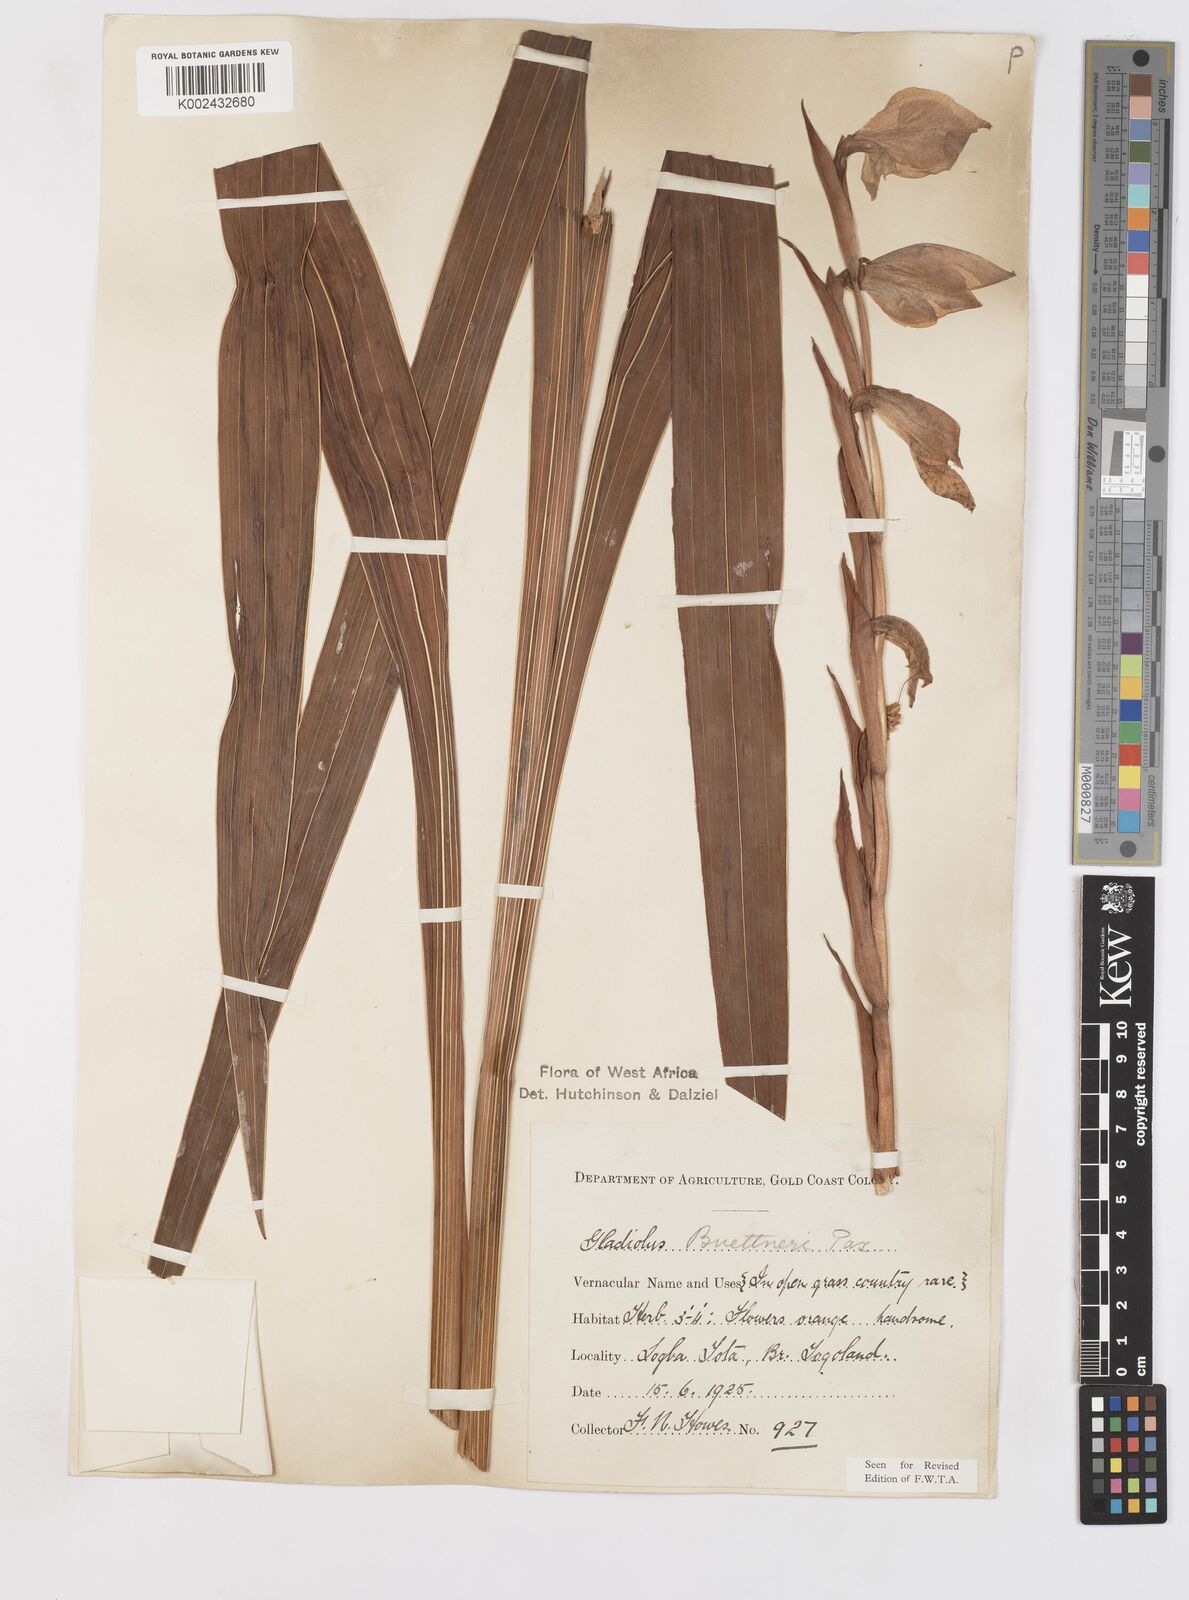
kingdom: Plantae
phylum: Tracheophyta
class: Liliopsida
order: Asparagales
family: Iridaceae
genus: Gladiolus
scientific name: Gladiolus dalenii
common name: Cornflag
